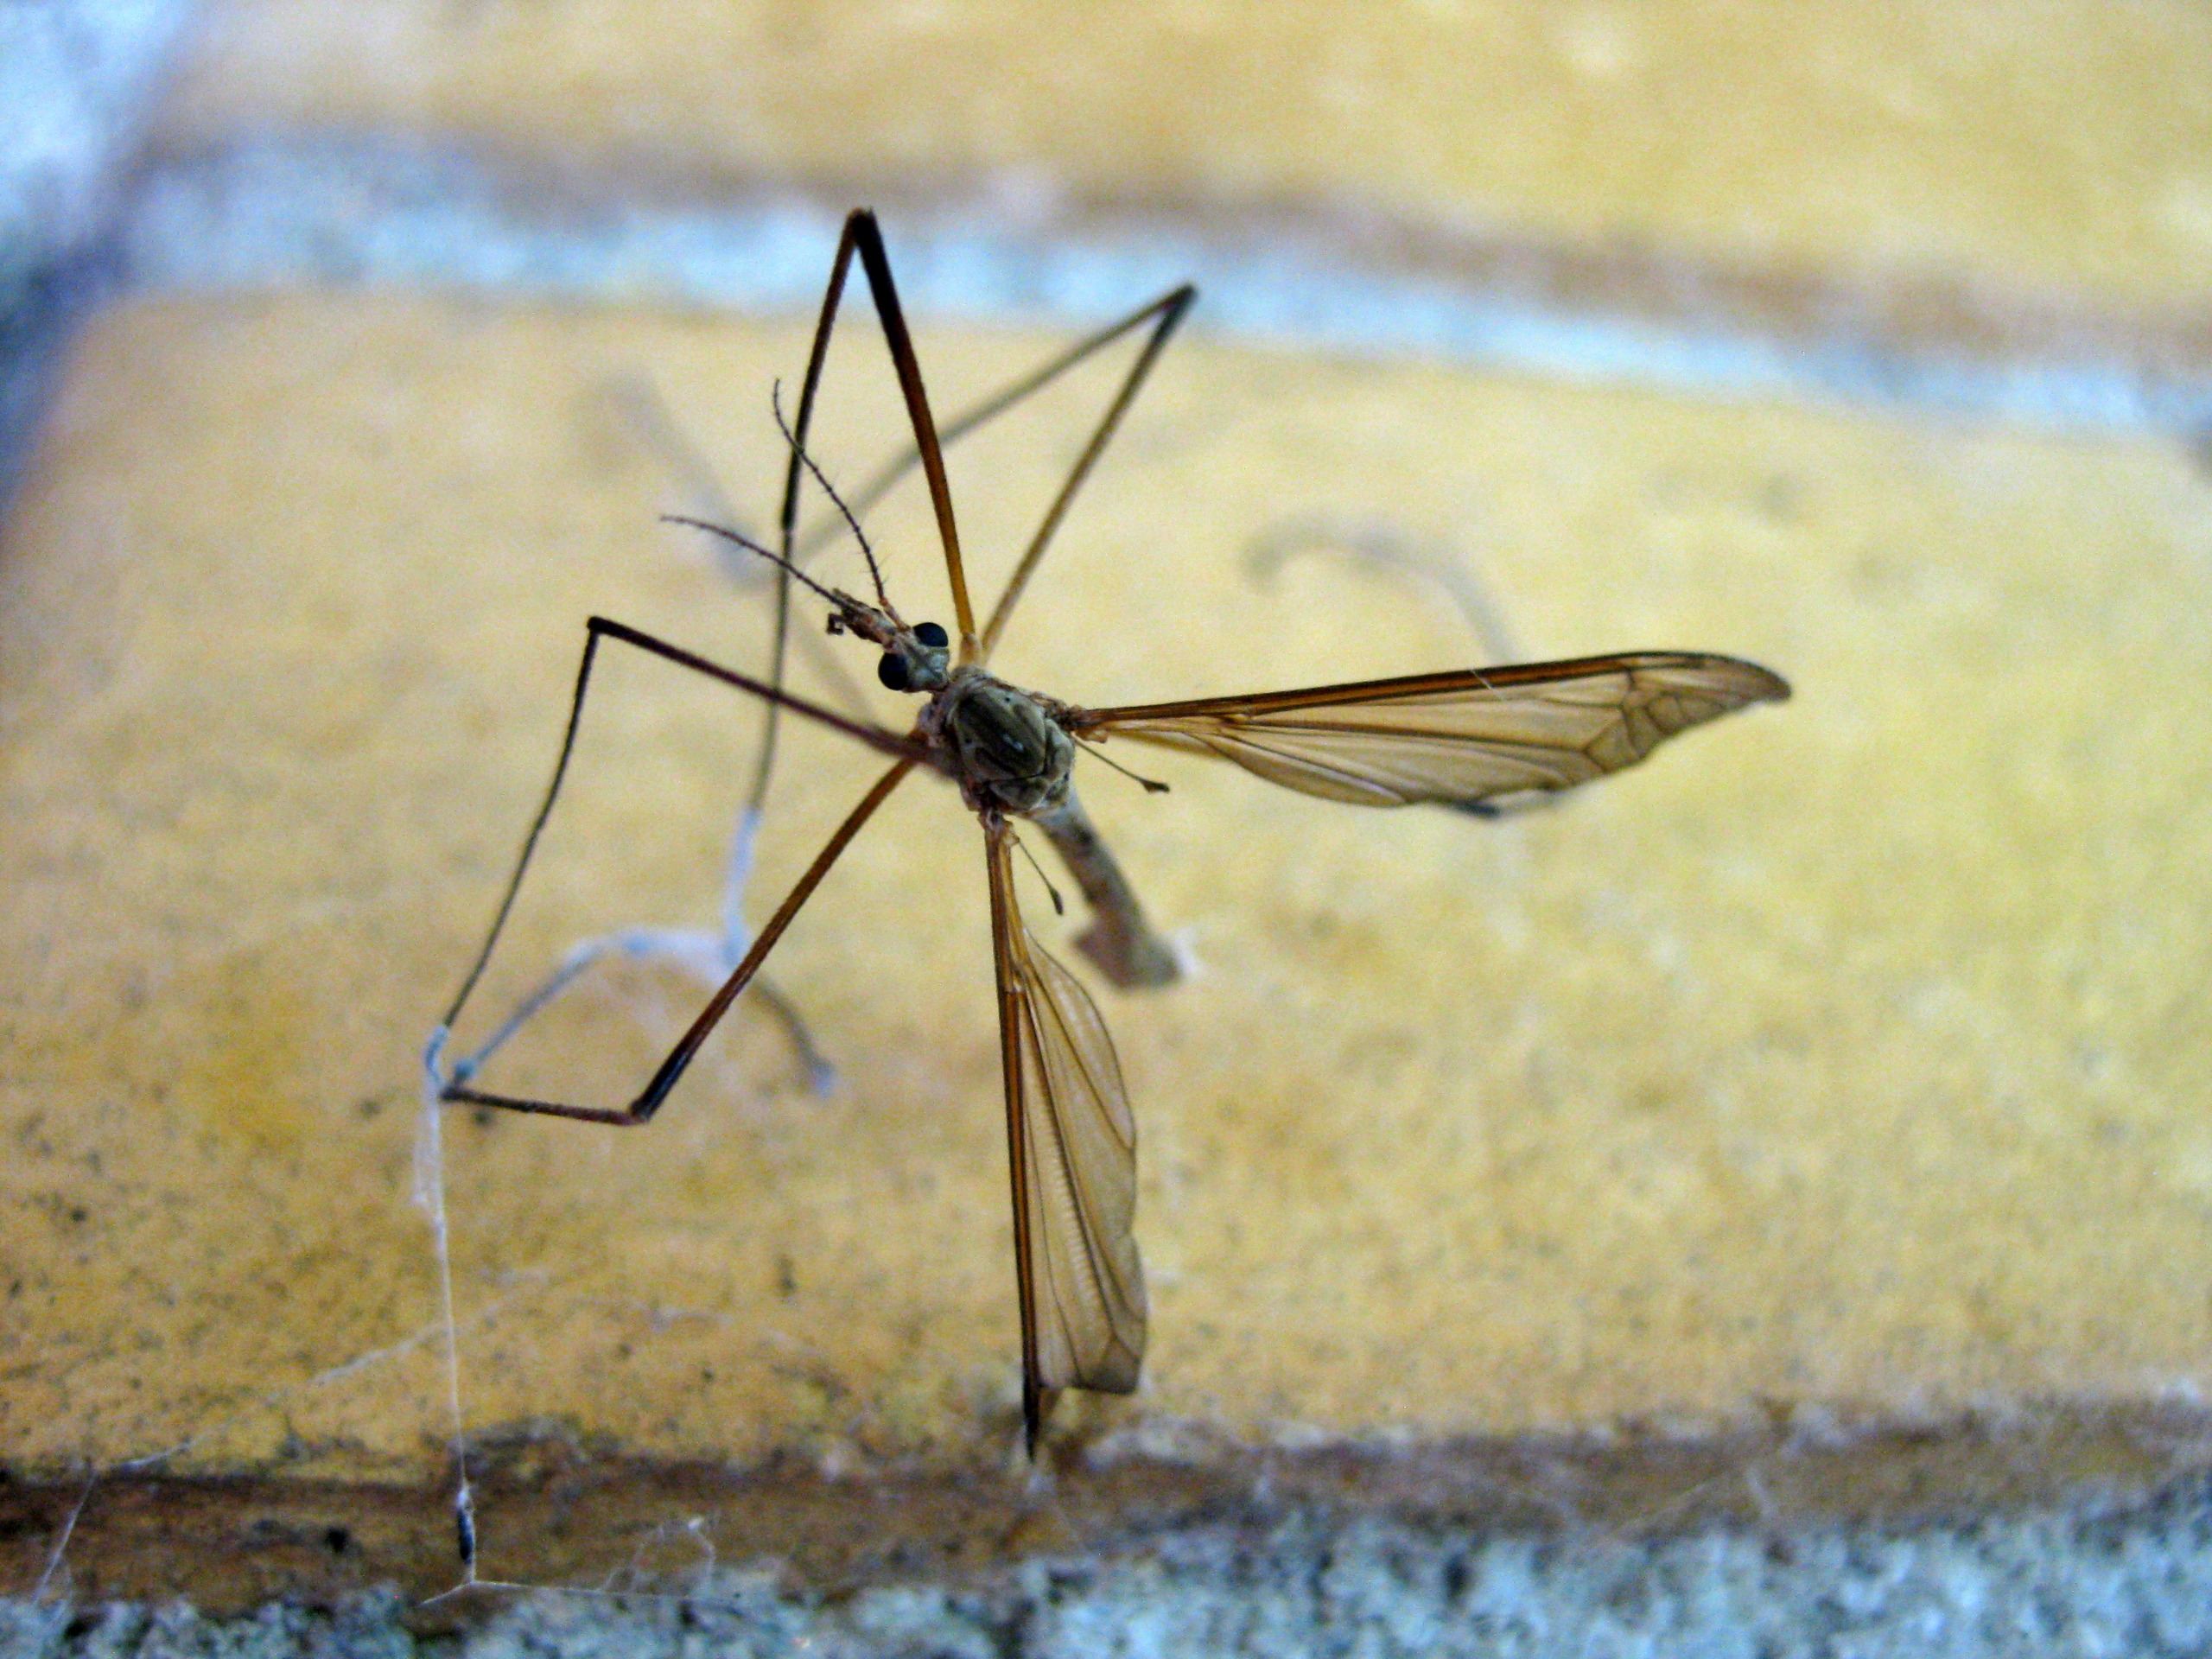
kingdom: Animalia
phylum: Arthropoda
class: Insecta
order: Diptera
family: Tipulidae
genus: Tipula
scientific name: Tipula paludosa
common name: Mosestankelben
